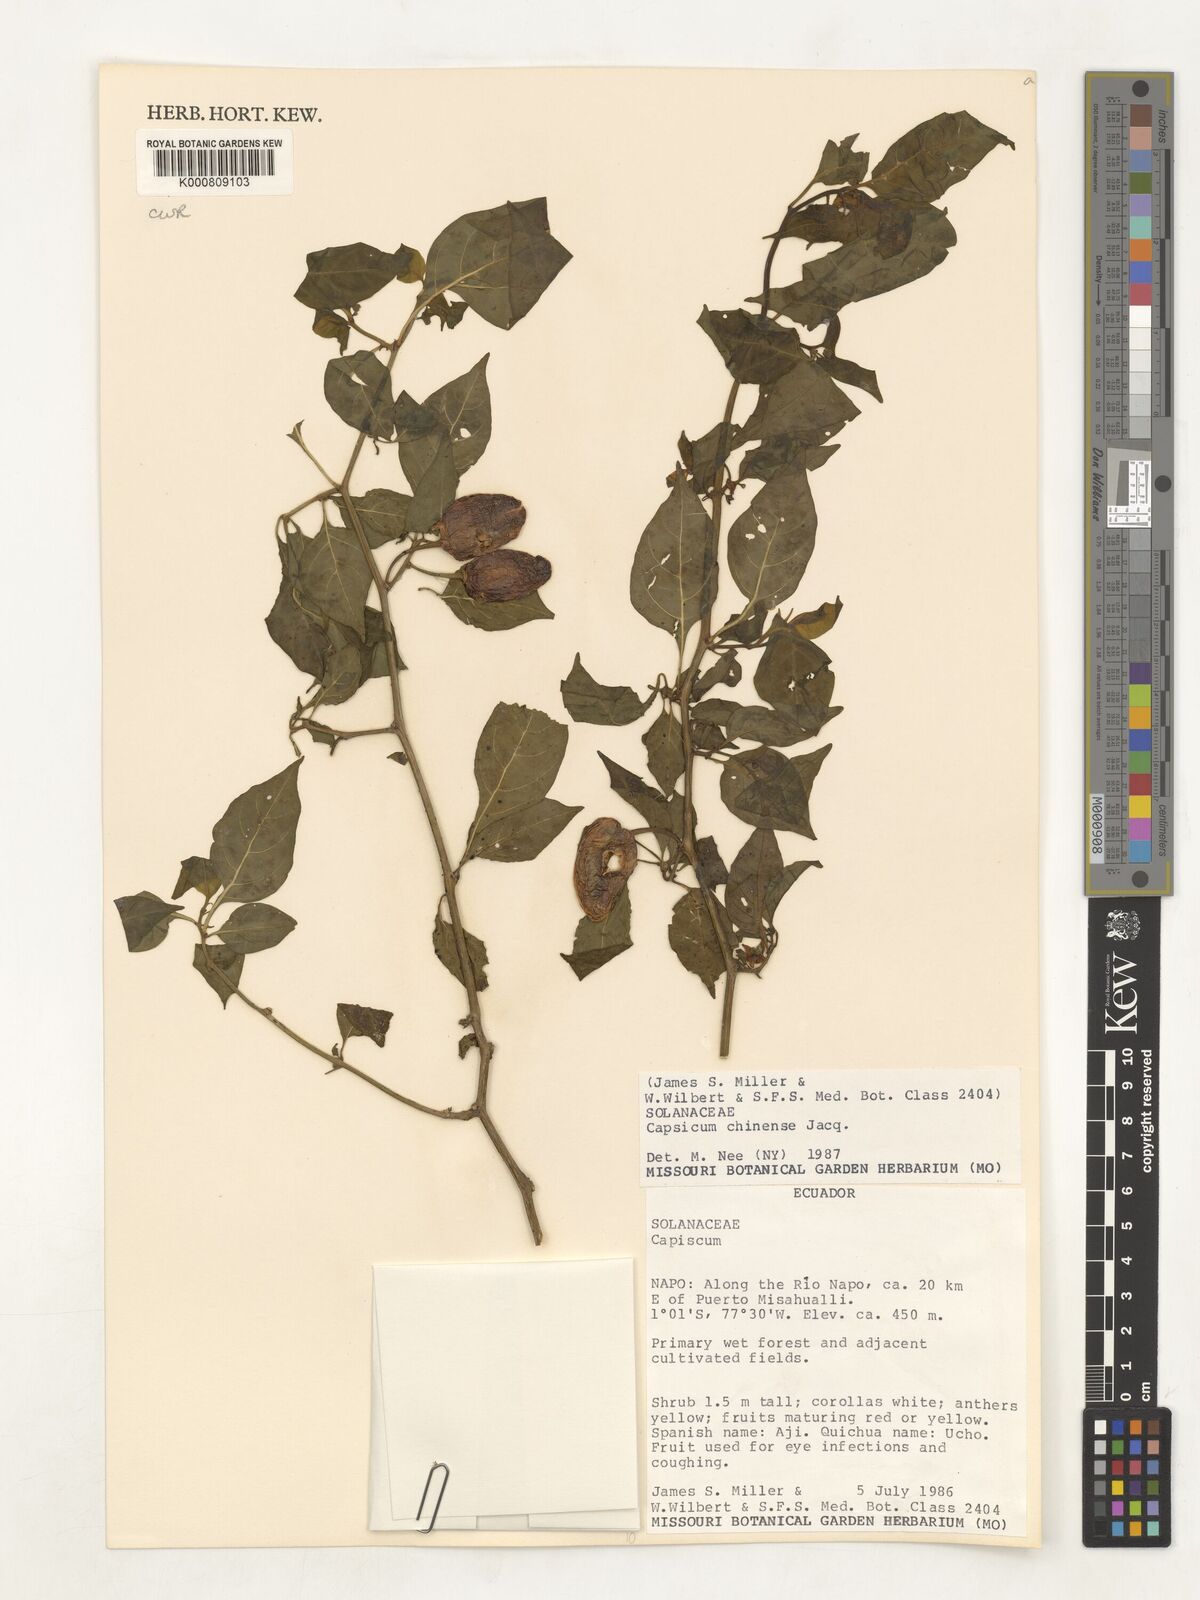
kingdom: Plantae
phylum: Tracheophyta
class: Magnoliopsida
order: Solanales
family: Solanaceae
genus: Capsicum
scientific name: Capsicum chinense
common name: Yellow squash pepper
